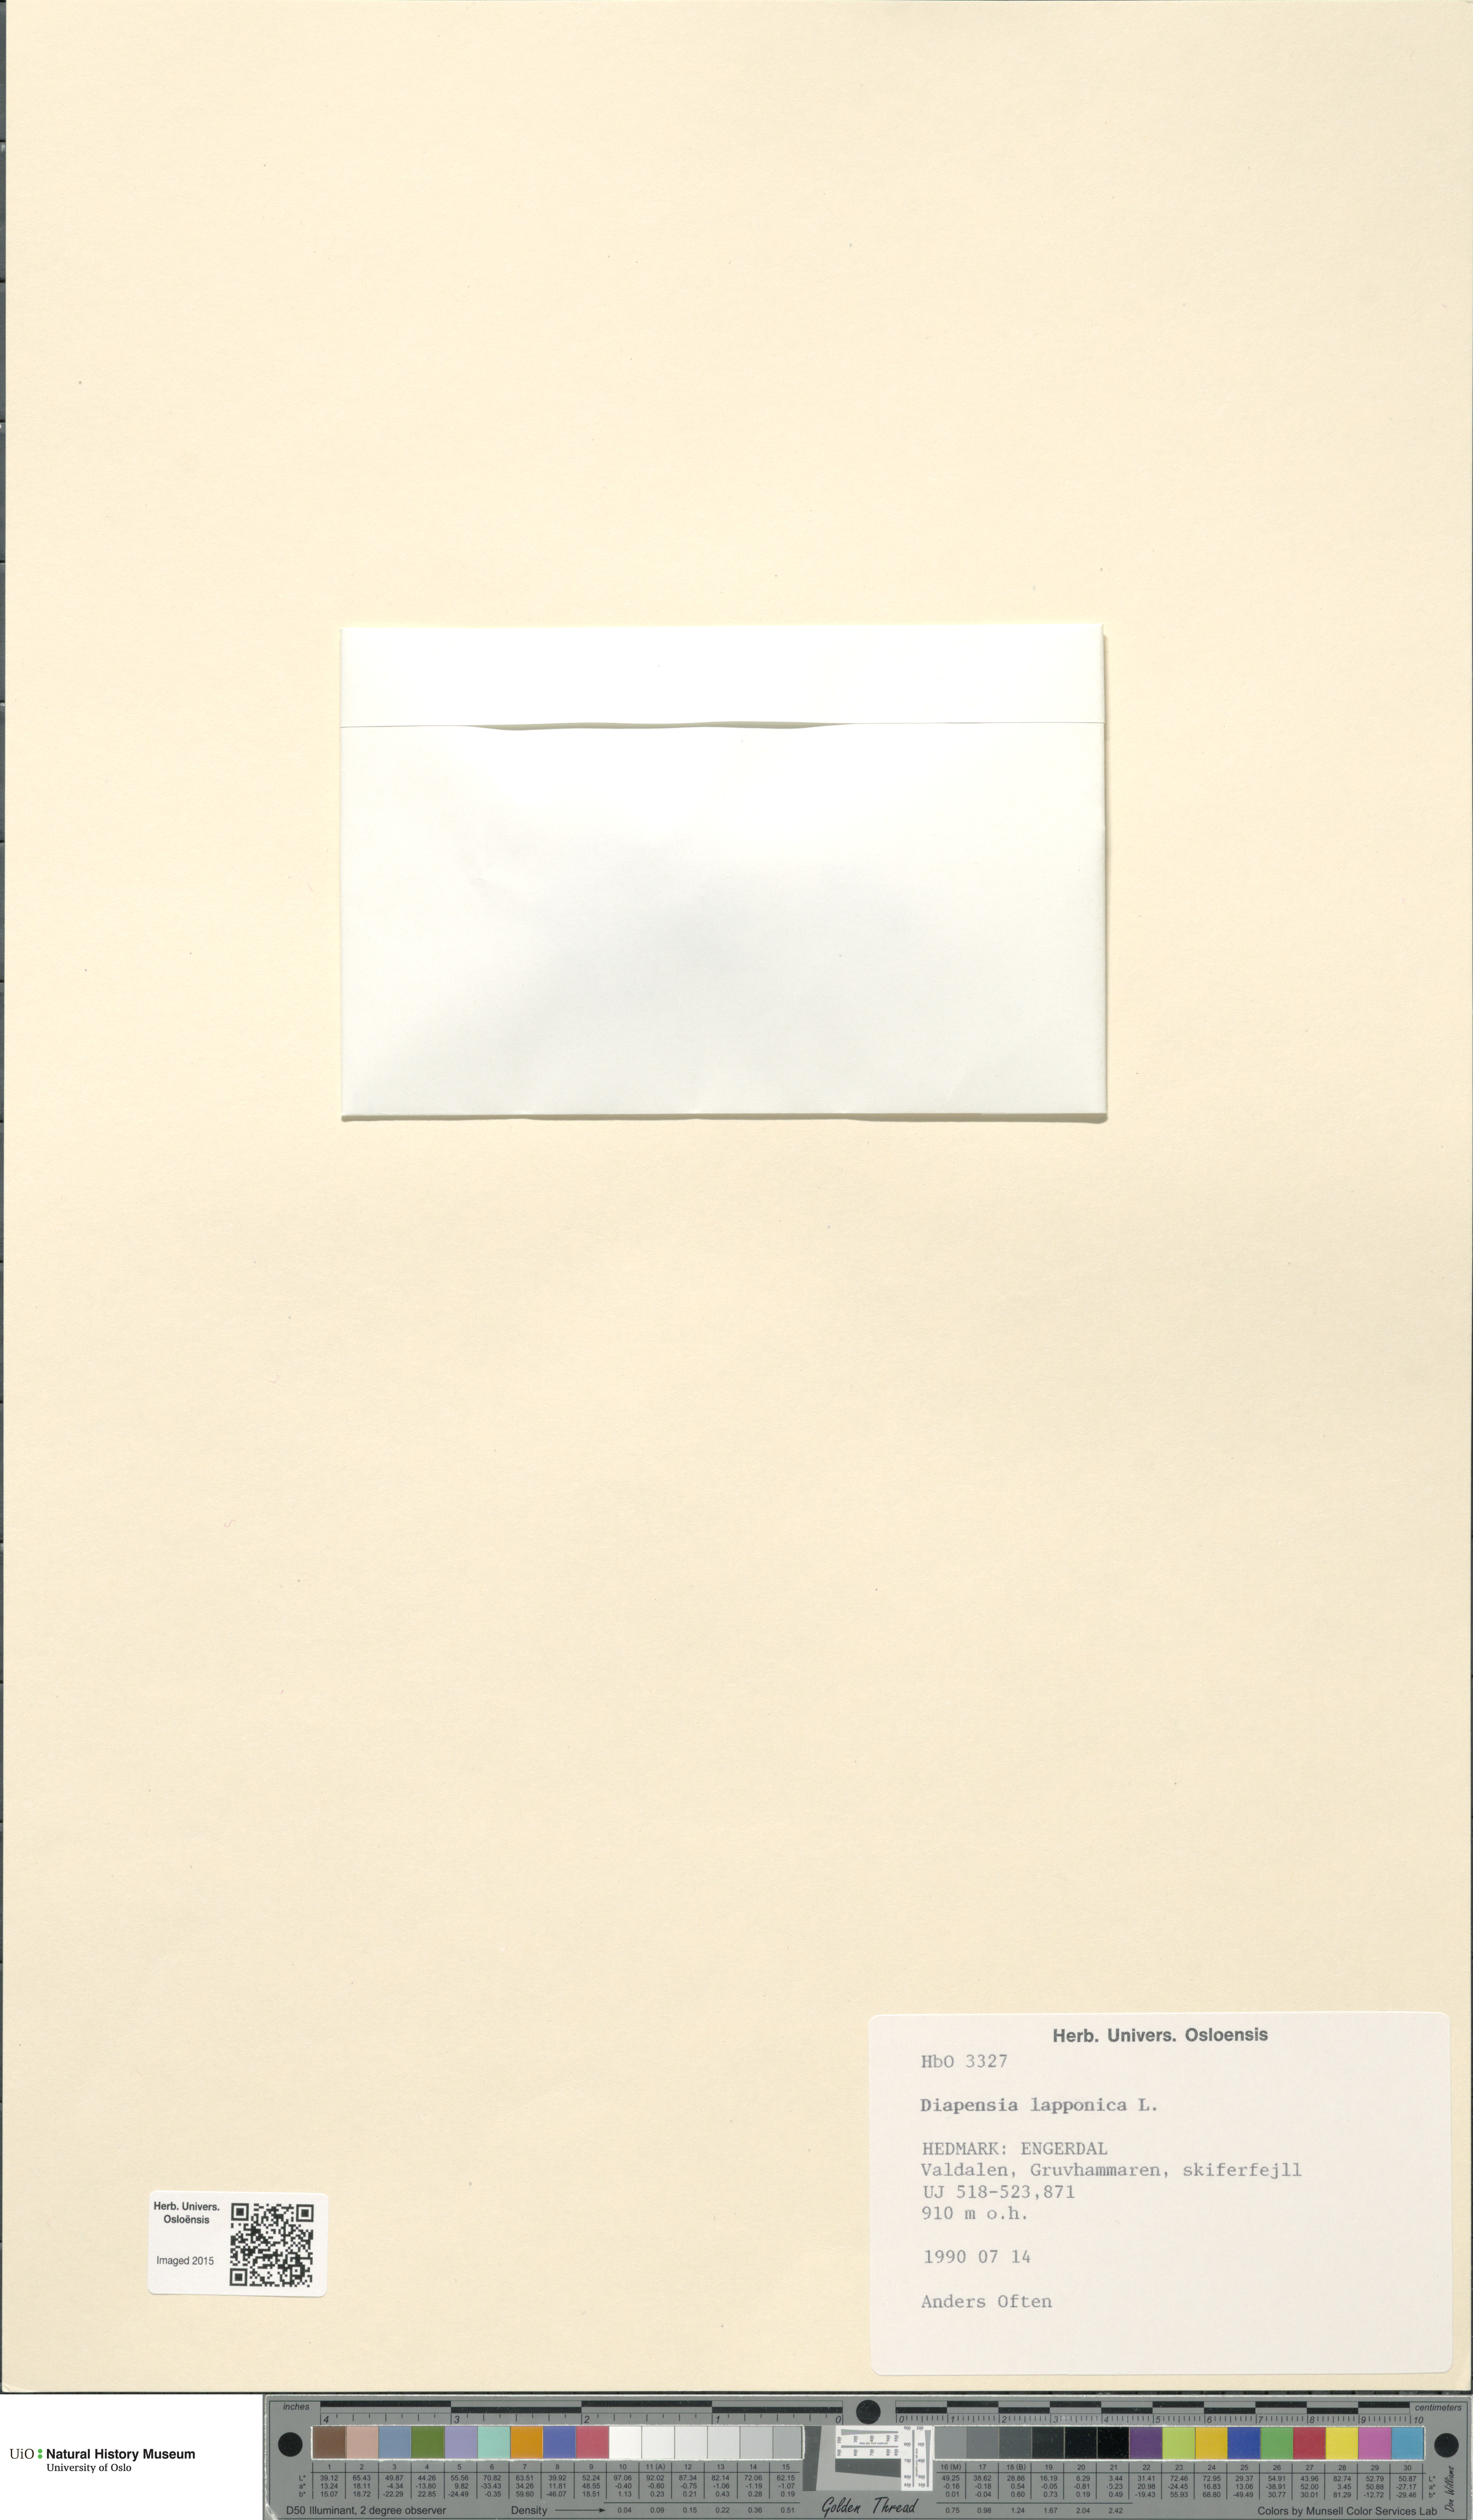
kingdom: Plantae
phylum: Tracheophyta
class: Magnoliopsida
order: Ericales
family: Diapensiaceae
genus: Diapensia
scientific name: Diapensia lapponica
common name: Diapensia
